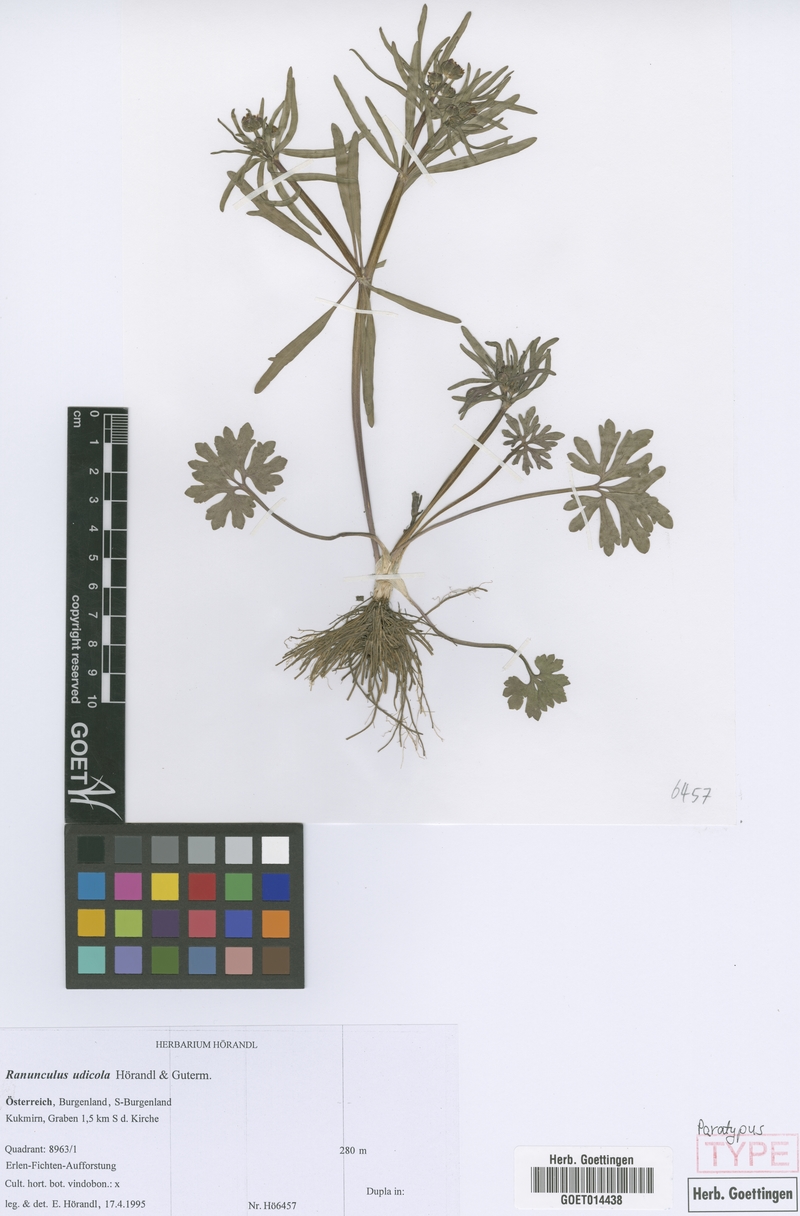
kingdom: Plantae
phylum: Tracheophyta
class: Magnoliopsida
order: Ranunculales
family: Ranunculaceae
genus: Ranunculus
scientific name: Ranunculus udicola
